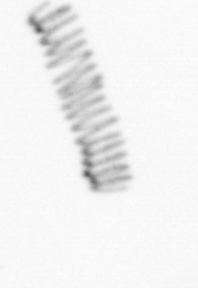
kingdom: Chromista
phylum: Ochrophyta
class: Bacillariophyceae
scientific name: Bacillariophyceae
